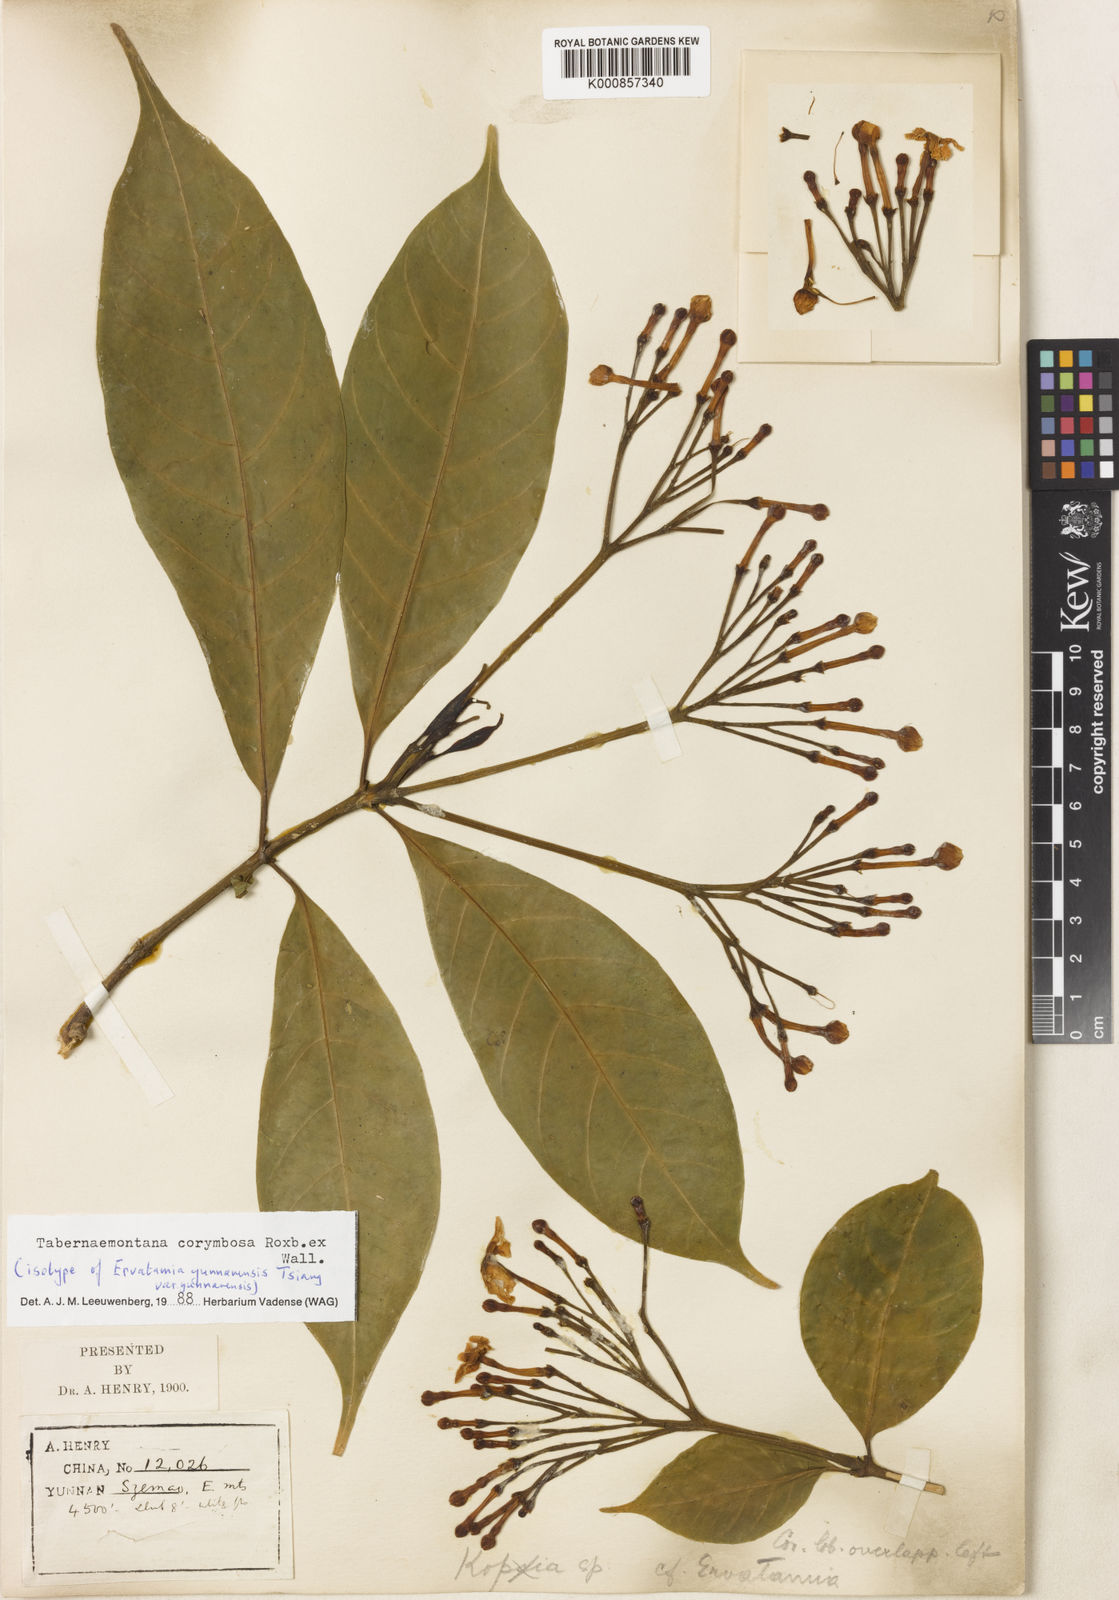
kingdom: Plantae
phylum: Tracheophyta
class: Magnoliopsida
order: Gentianales
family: Apocynaceae
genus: Tabernaemontana
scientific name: Tabernaemontana corymbosa
